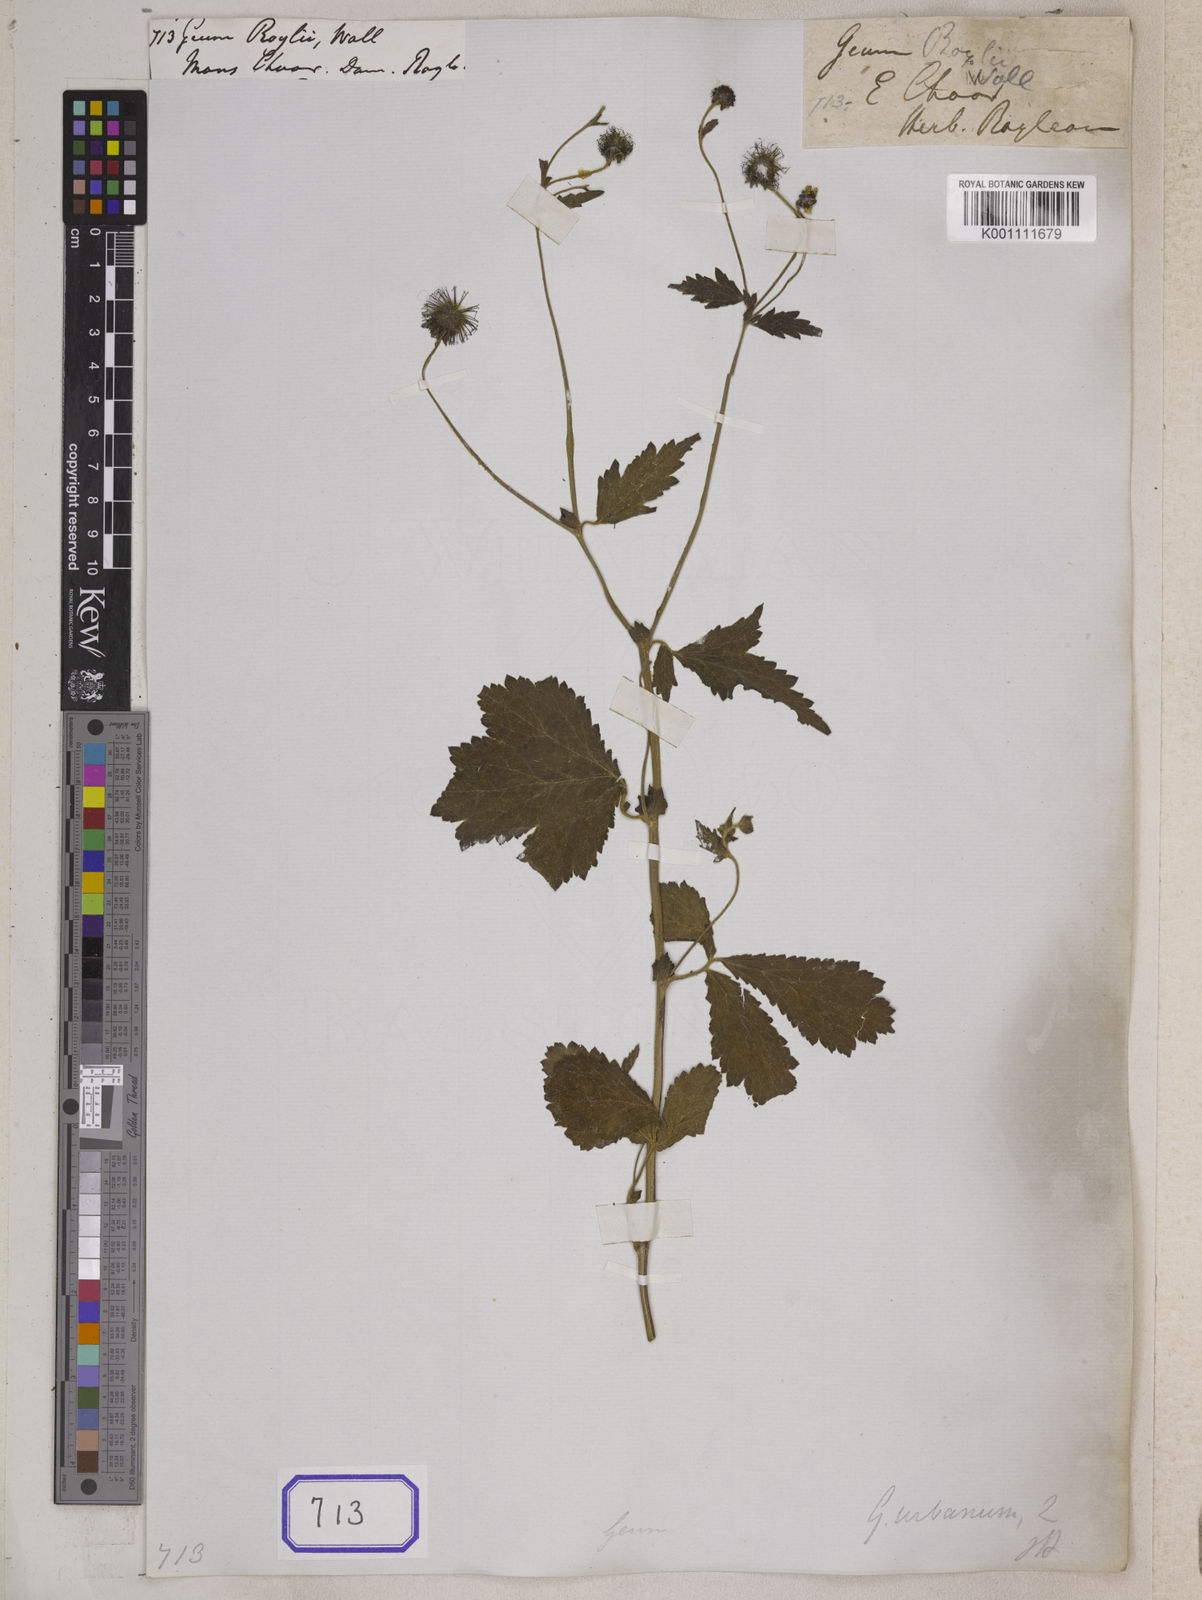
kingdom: Plantae
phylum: Tracheophyta
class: Magnoliopsida
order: Rosales
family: Rosaceae
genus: Geum
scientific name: Geum roylei
